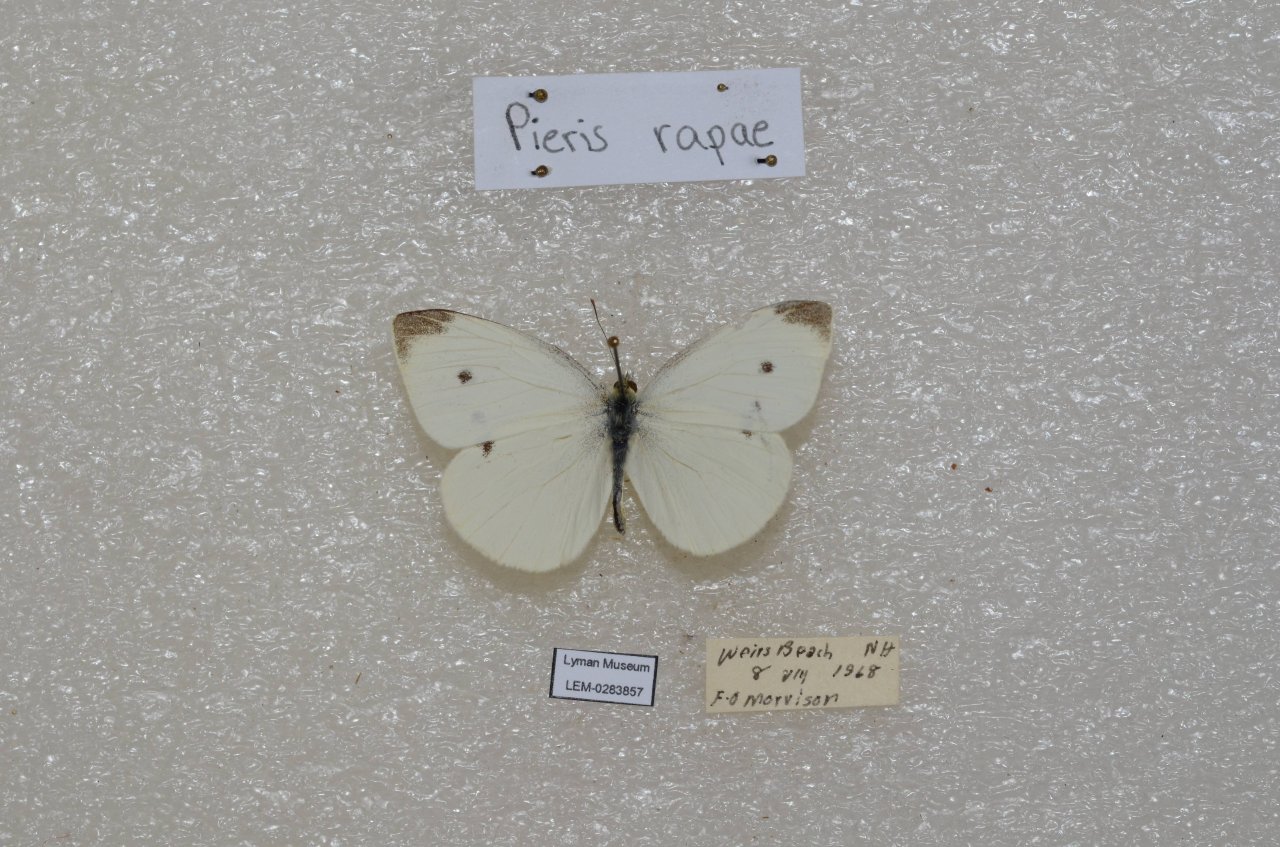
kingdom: Animalia
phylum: Arthropoda
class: Insecta
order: Lepidoptera
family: Pieridae
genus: Pieris
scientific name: Pieris rapae
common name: Cabbage White
